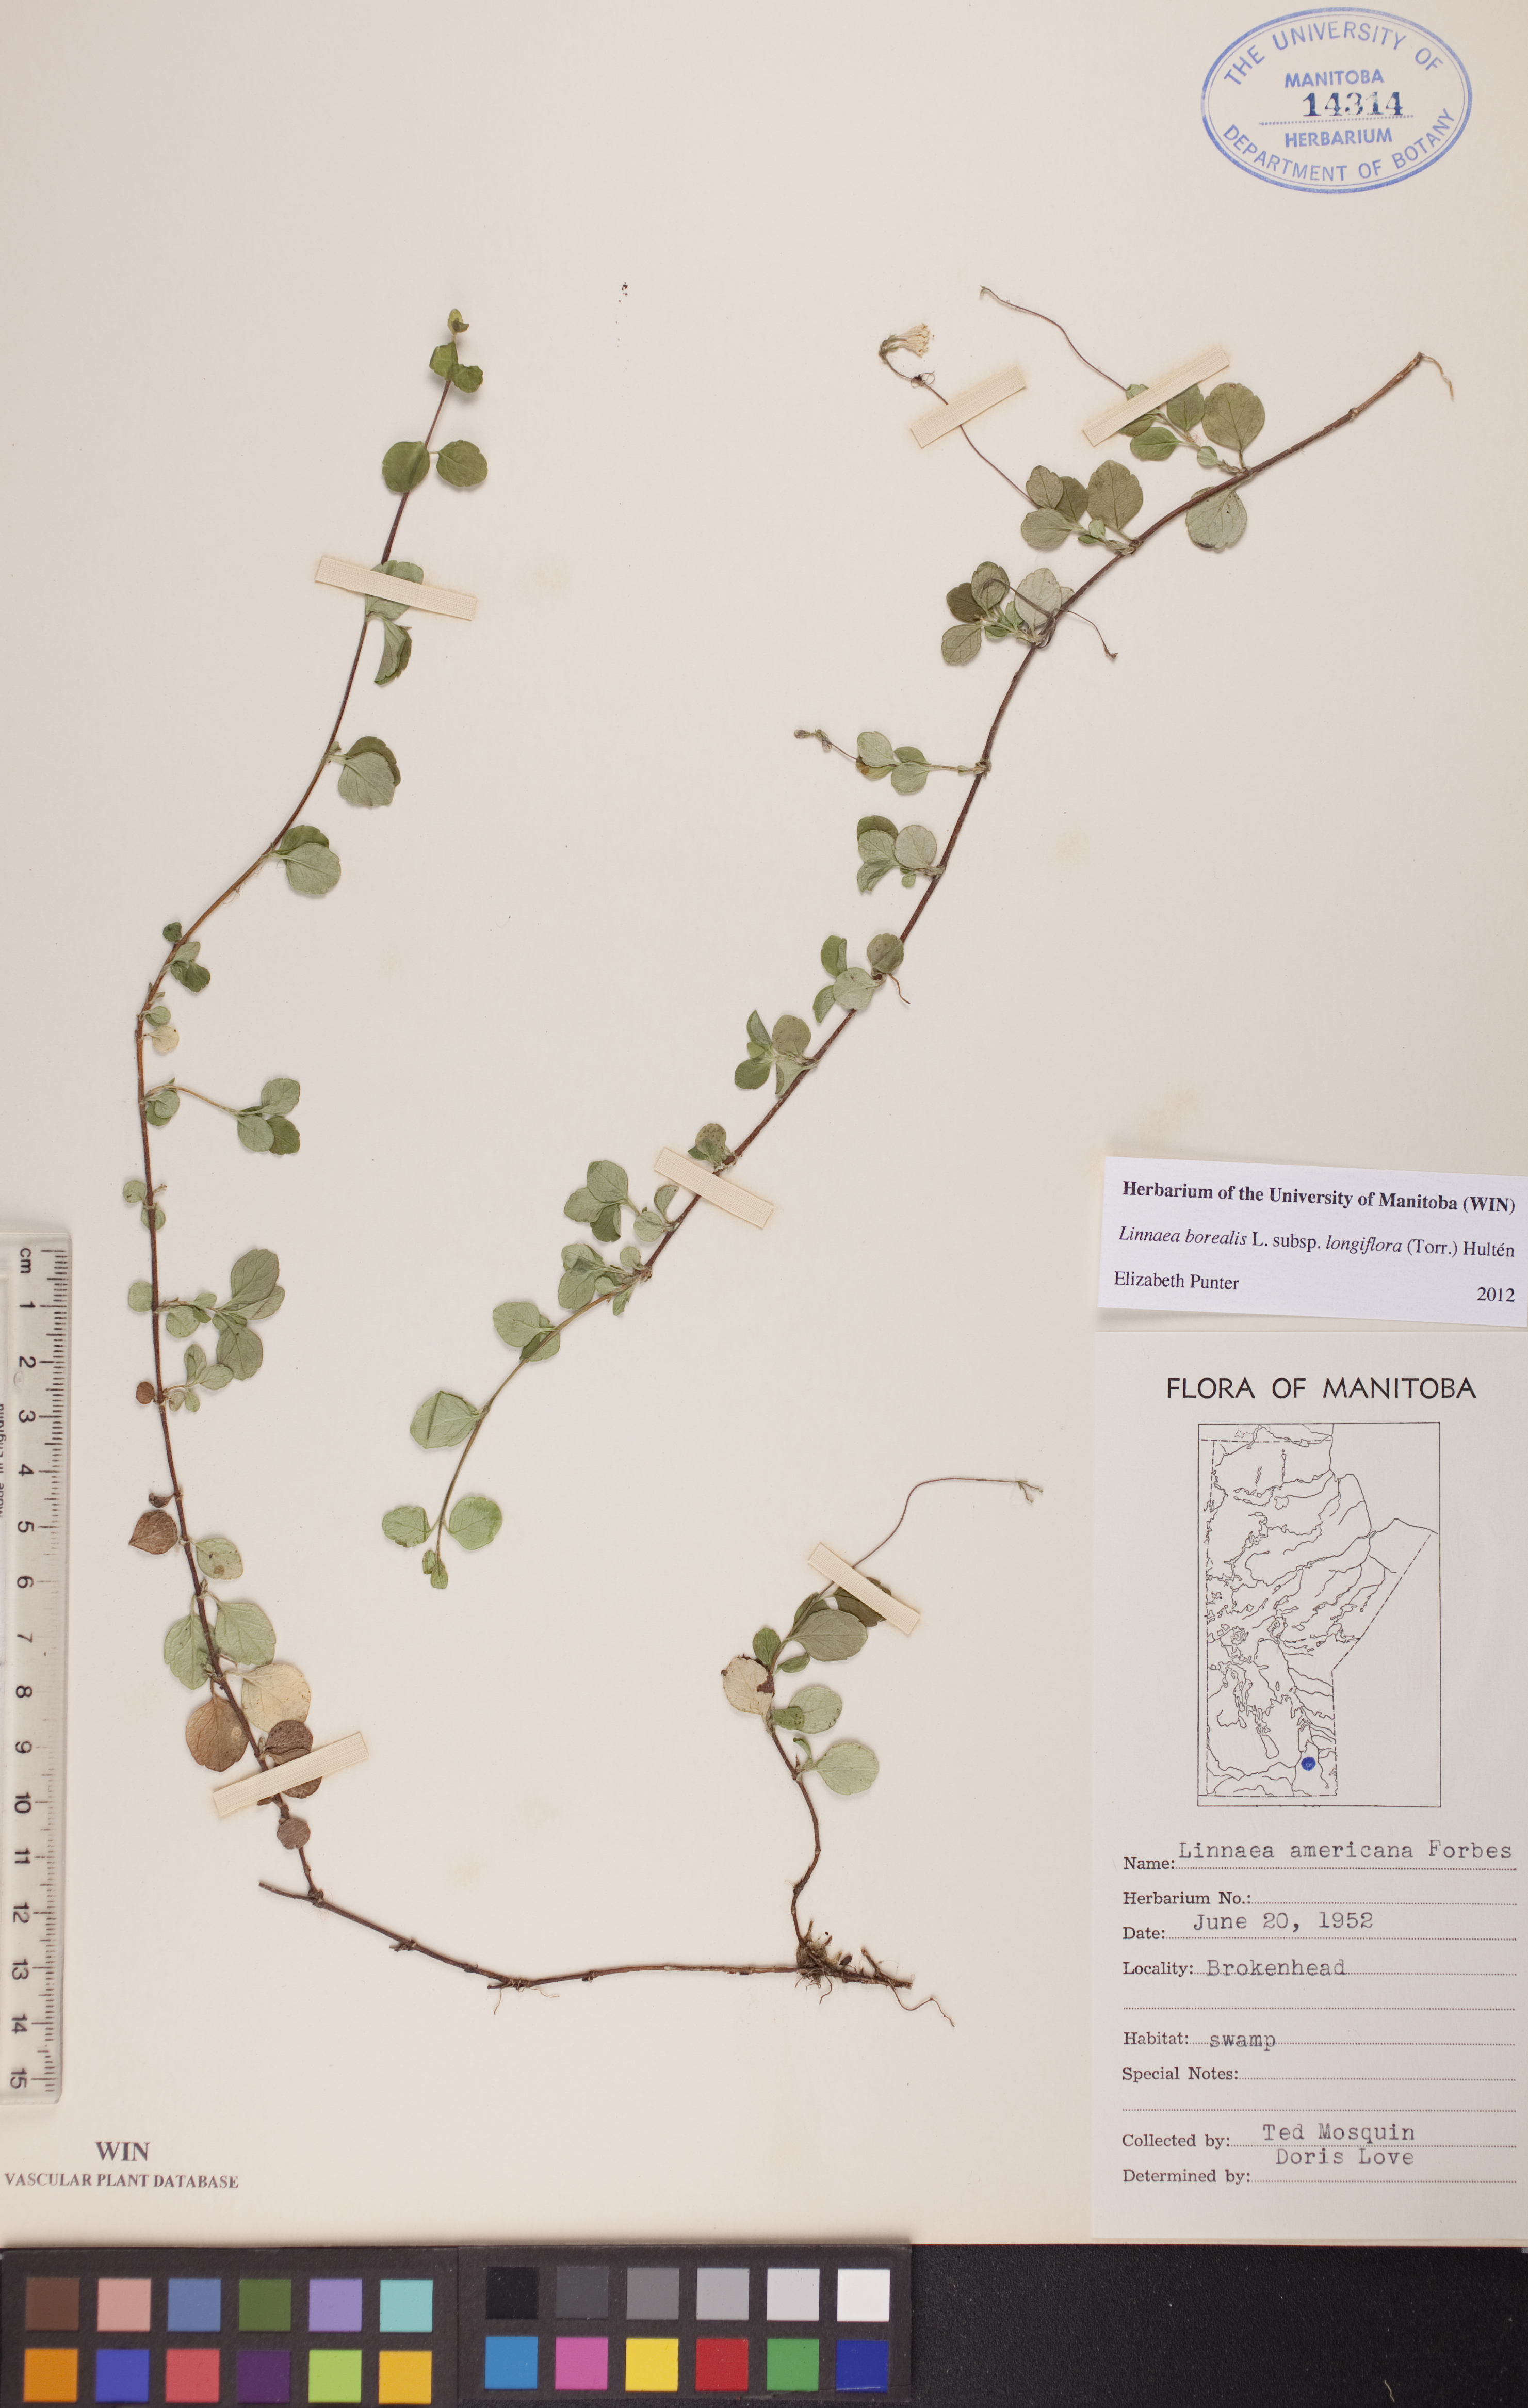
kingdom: Plantae
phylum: Tracheophyta
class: Magnoliopsida
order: Dipsacales
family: Caprifoliaceae
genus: Linnaea
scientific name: Linnaea borealis
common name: Twinflower
